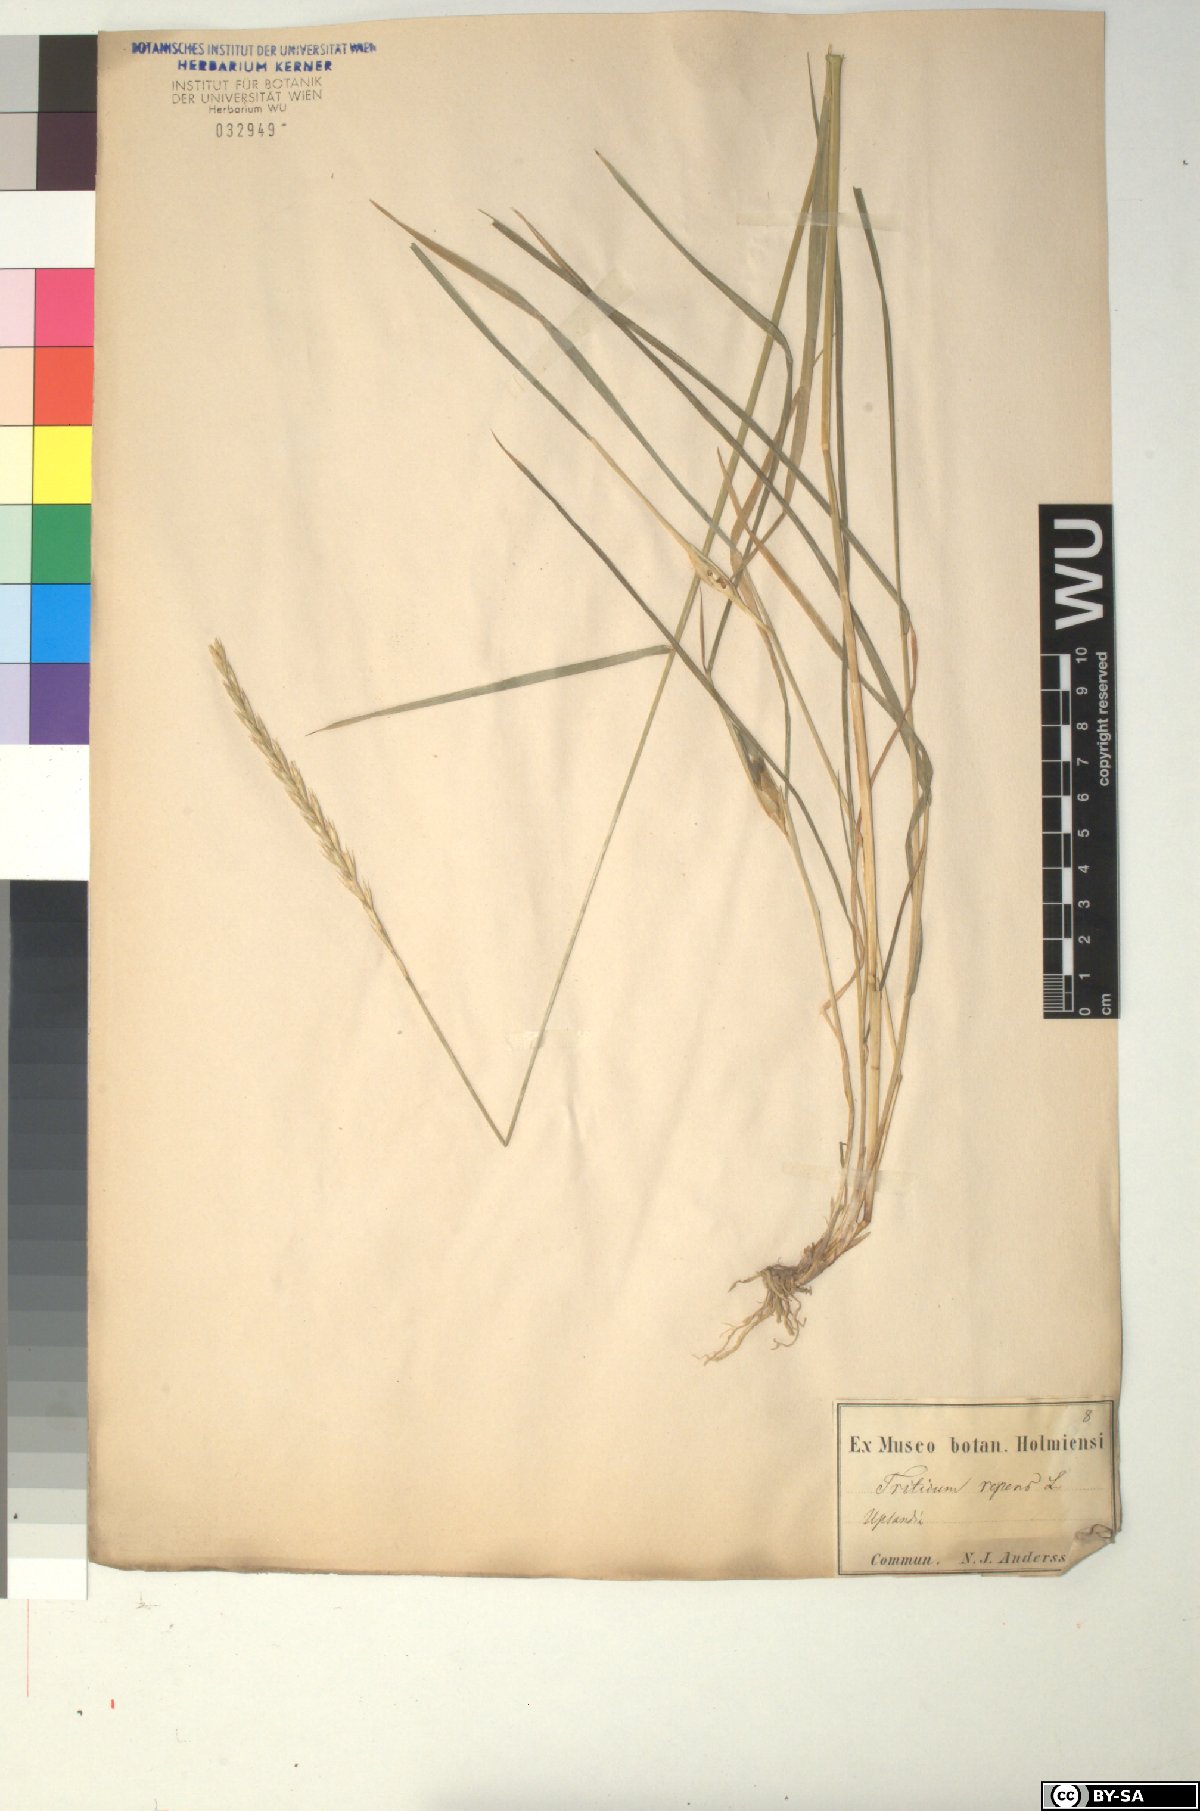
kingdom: Plantae
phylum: Tracheophyta
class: Liliopsida
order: Poales
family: Poaceae
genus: Elymus
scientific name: Elymus repens
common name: Quackgrass
